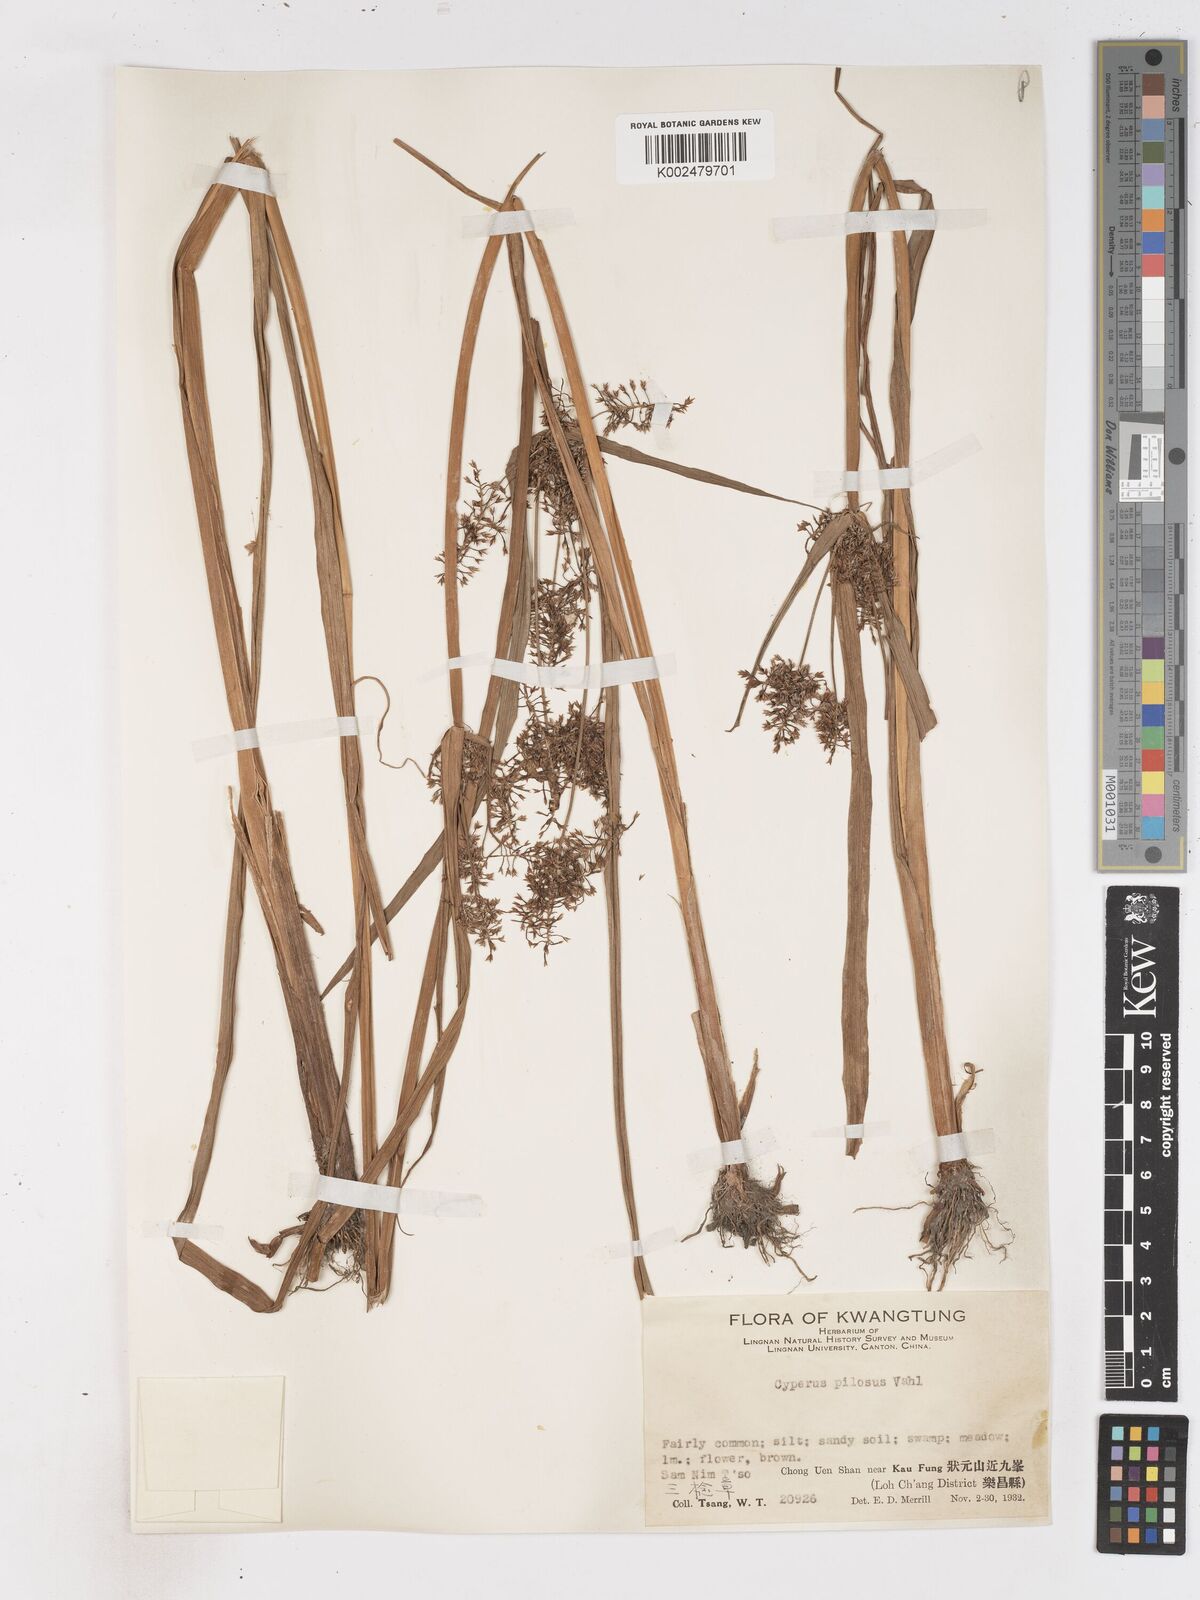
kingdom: Plantae
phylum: Tracheophyta
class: Liliopsida
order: Poales
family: Cyperaceae
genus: Cyperus
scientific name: Cyperus pilosus
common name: Fuzzy flatsedge
